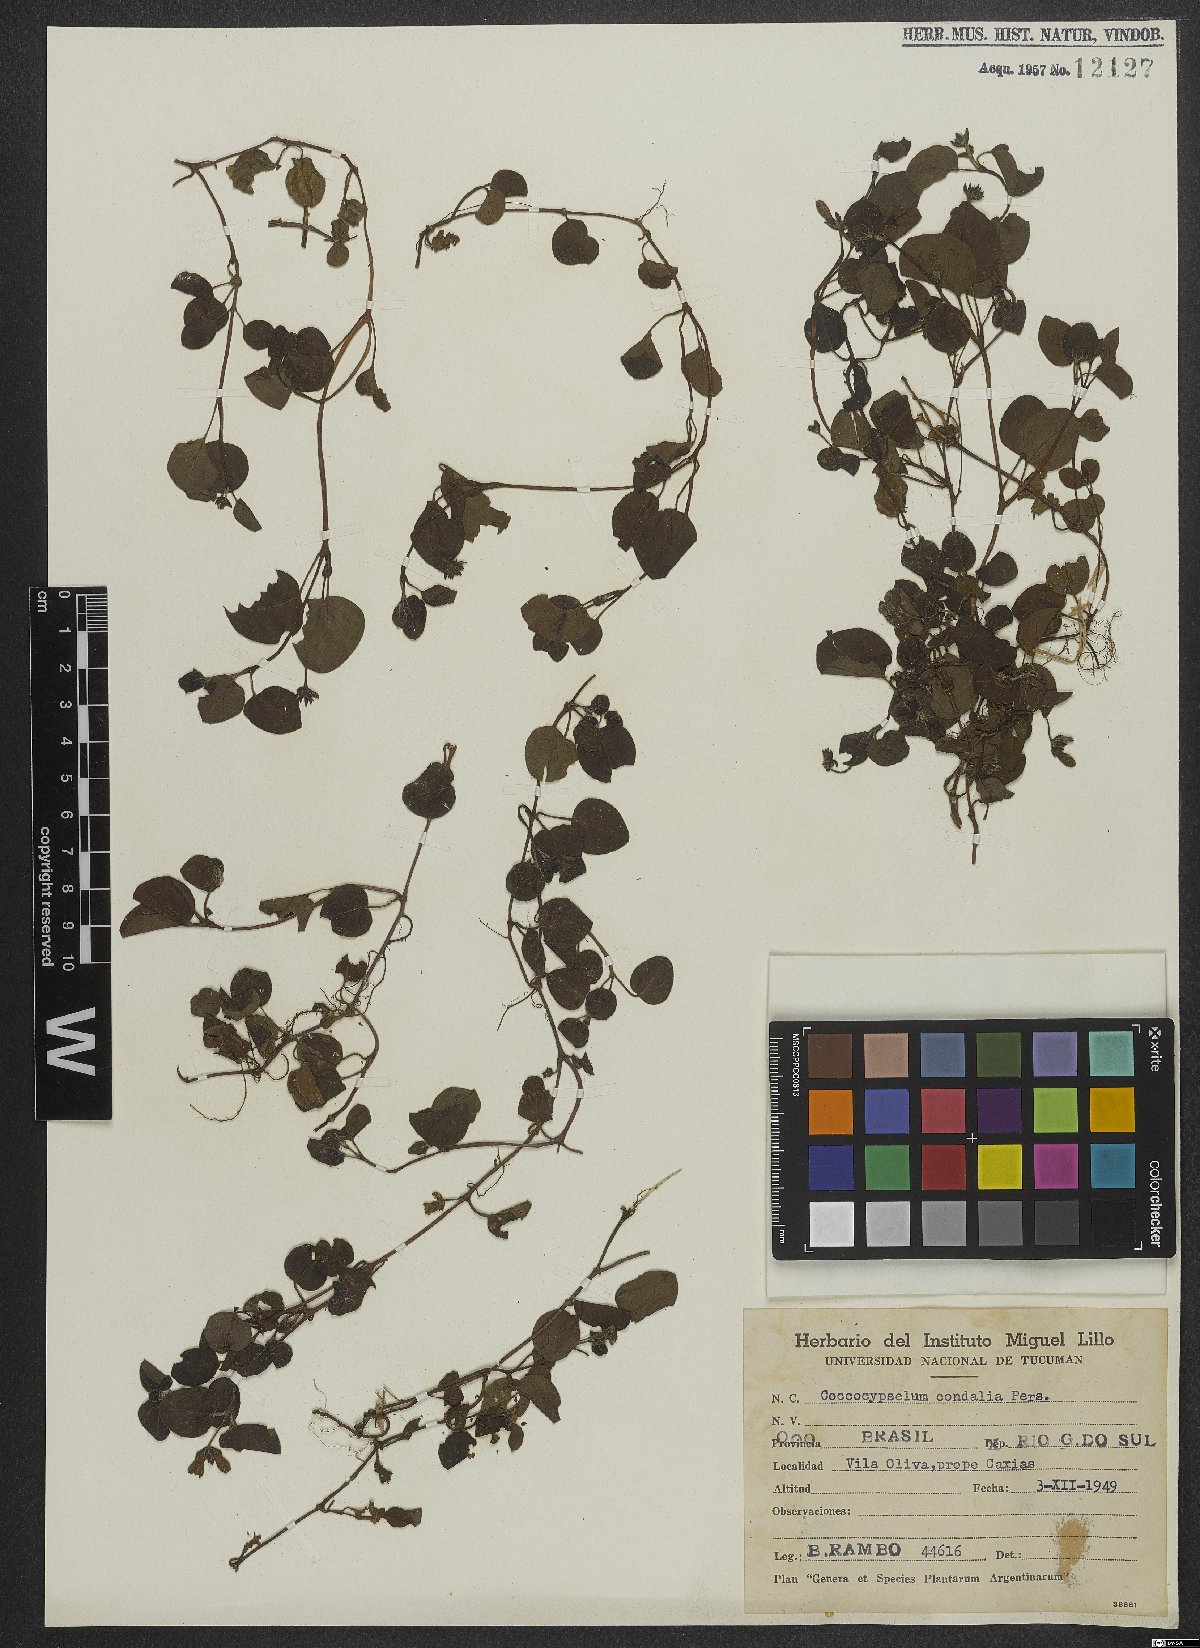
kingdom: Plantae
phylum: Tracheophyta
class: Magnoliopsida
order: Gentianales
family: Rubiaceae
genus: Coccocypselum
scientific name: Coccocypselum condalia
